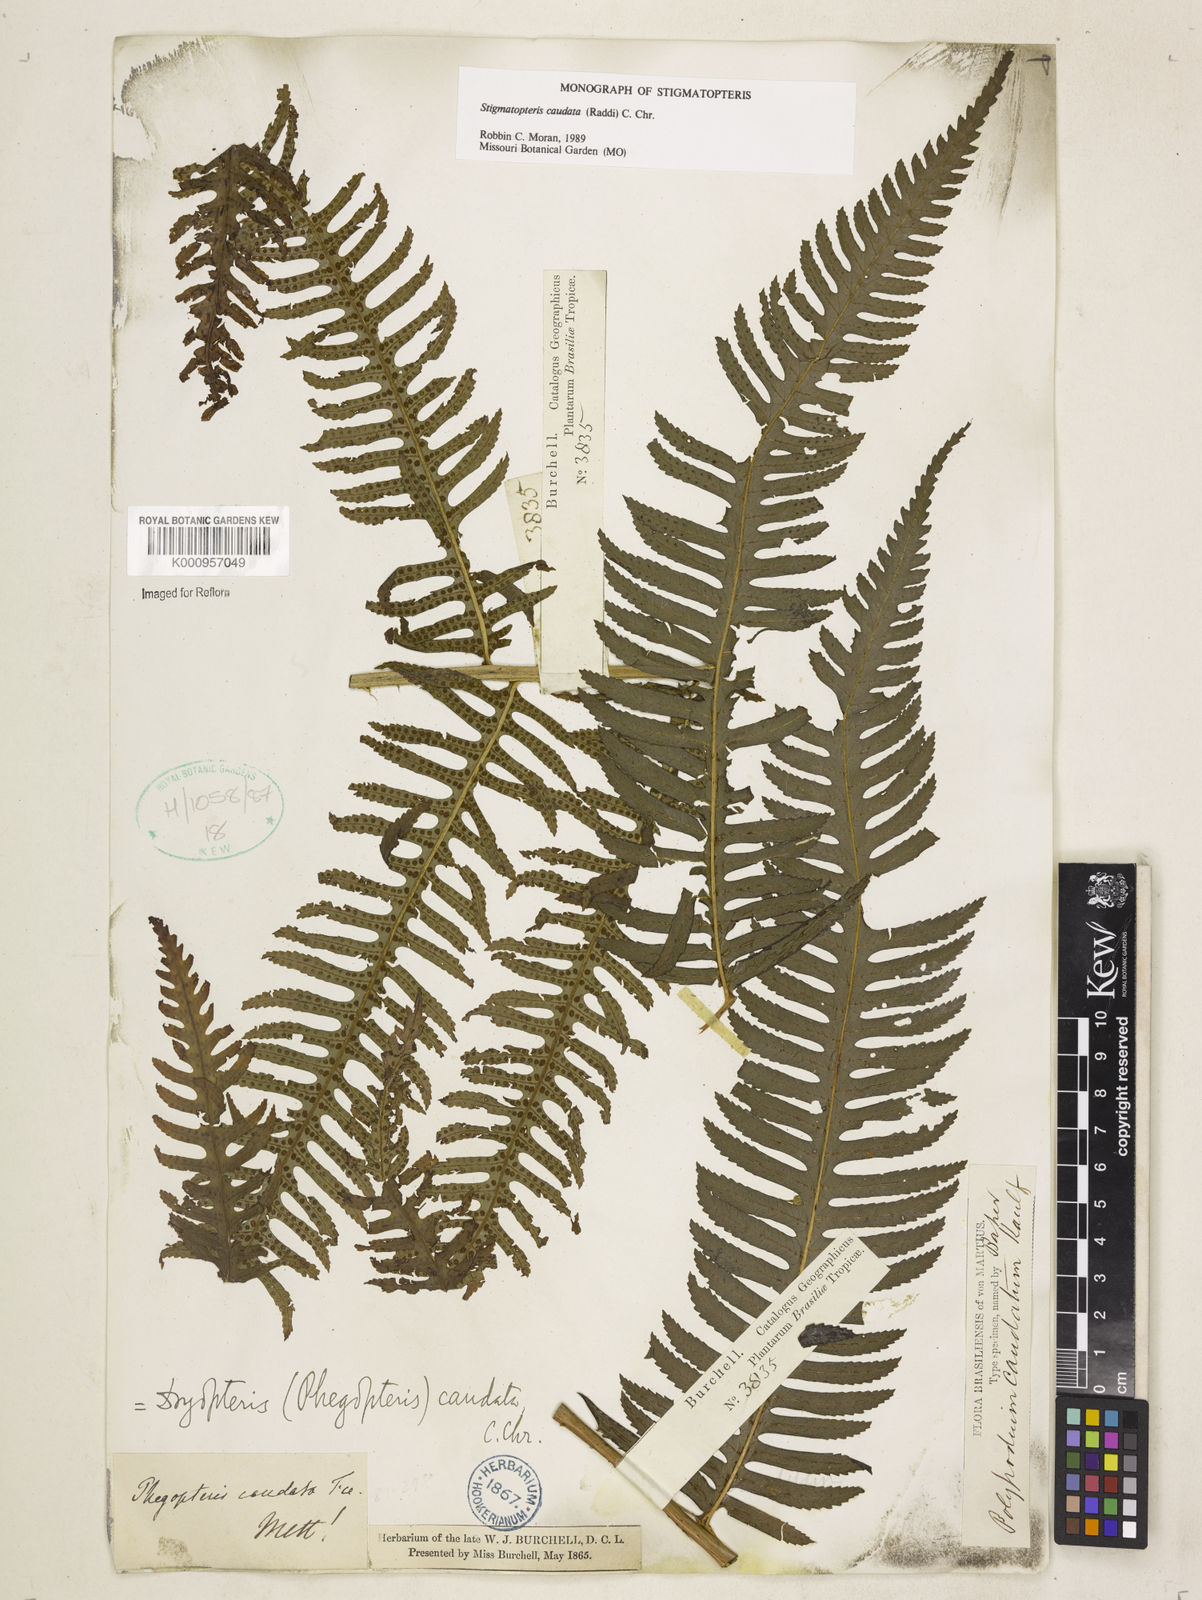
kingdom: Plantae
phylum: Tracheophyta
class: Polypodiopsida
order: Polypodiales
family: Dryopteridaceae
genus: Stigmatopteris
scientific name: Stigmatopteris caudata
